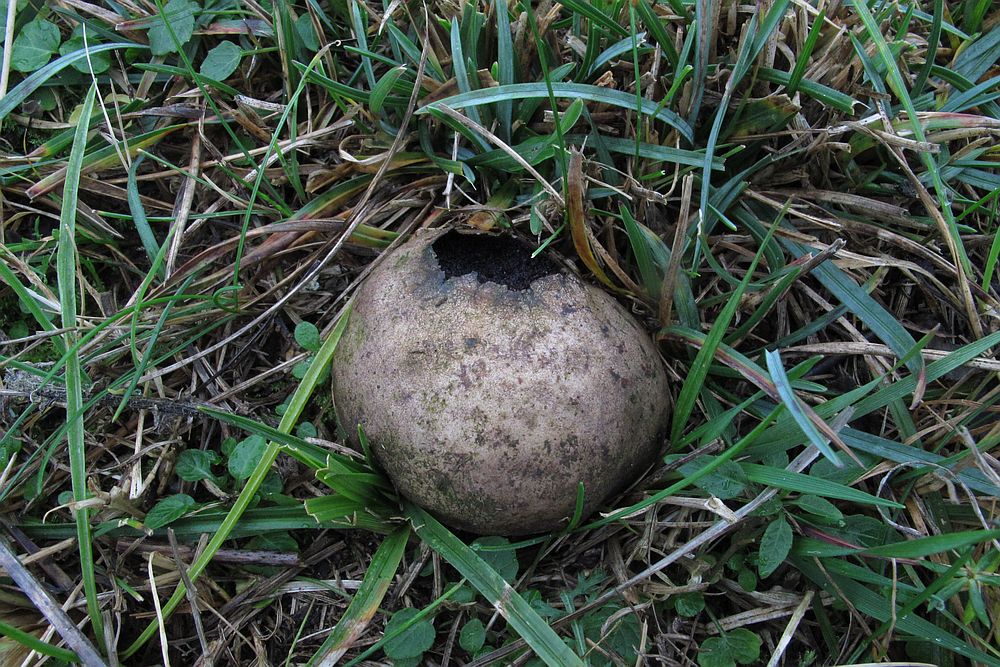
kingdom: Fungi
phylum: Basidiomycota
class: Agaricomycetes
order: Agaricales
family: Lycoperdaceae
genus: Bovista
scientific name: Bovista nigrescens
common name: sortagtig bovist
